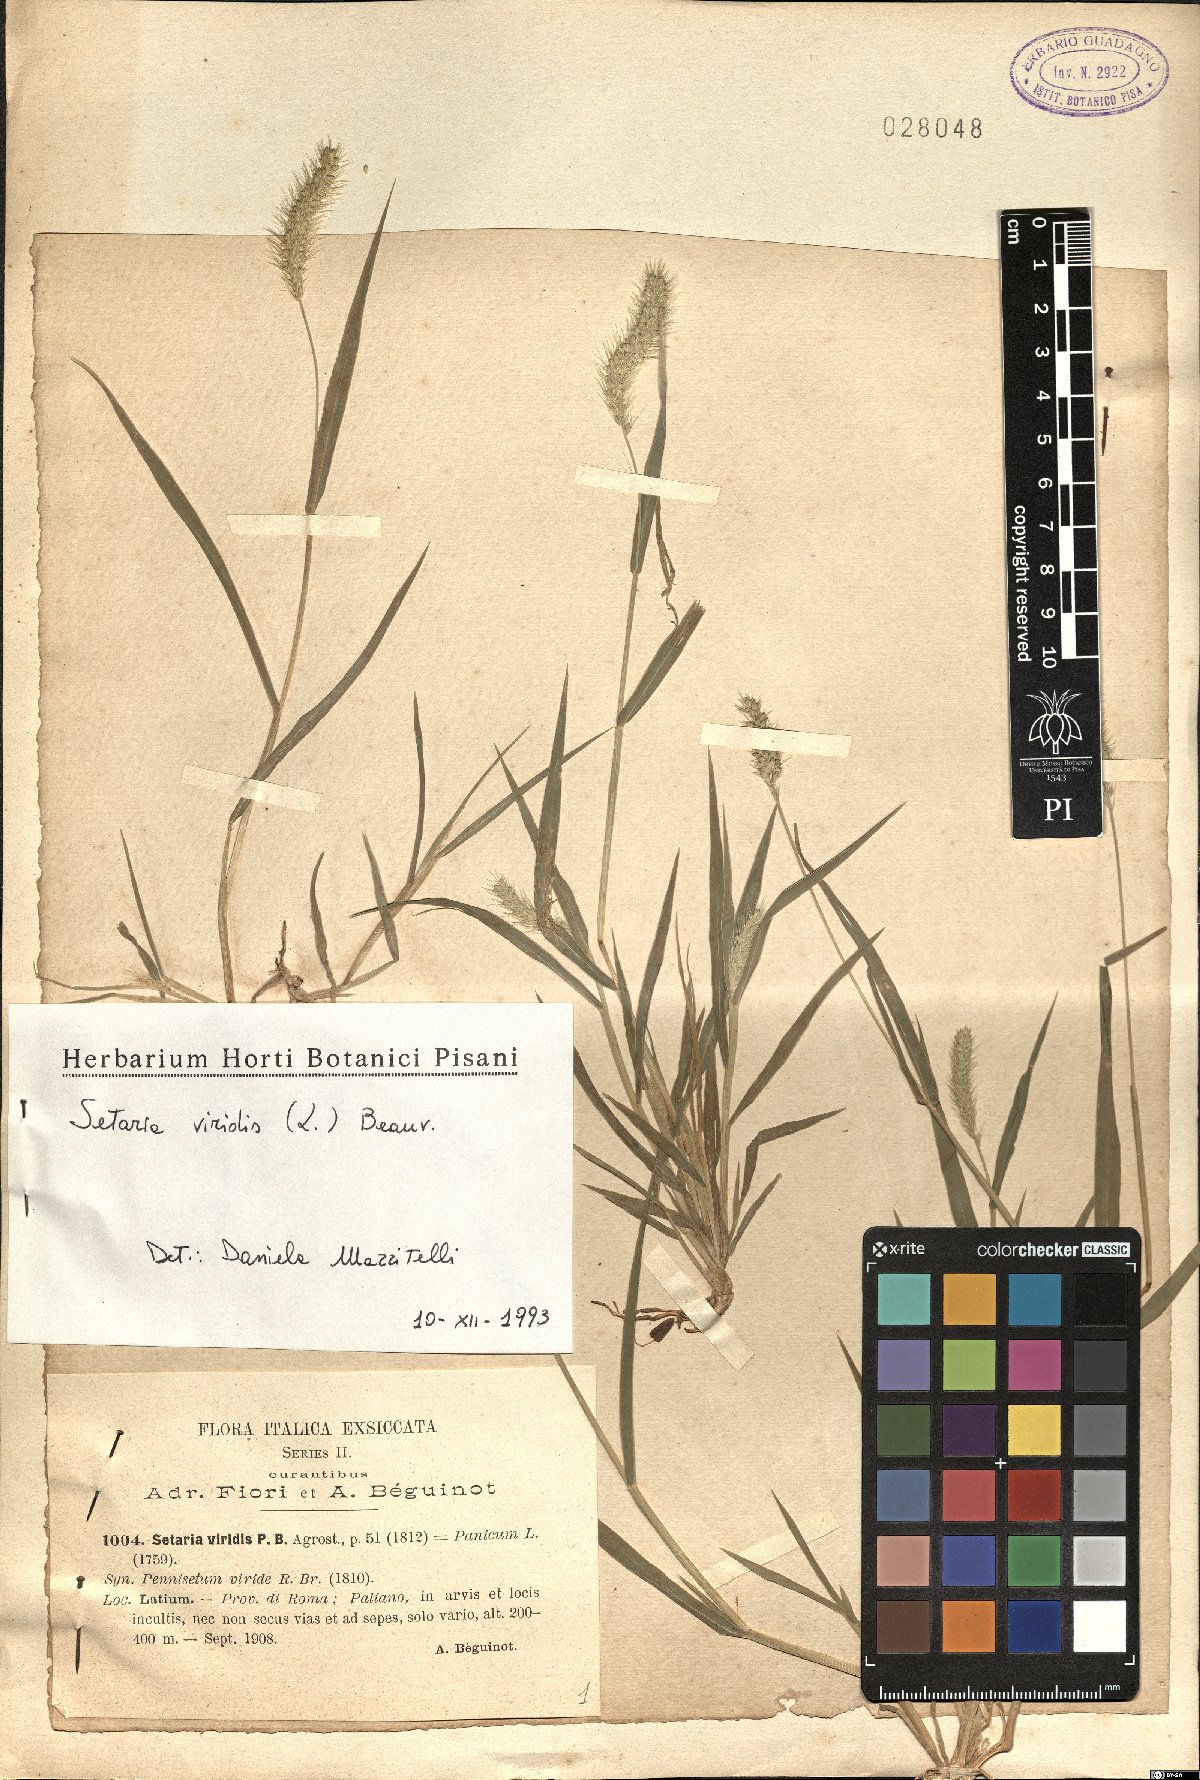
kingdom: Plantae
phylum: Tracheophyta
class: Liliopsida
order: Poales
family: Poaceae
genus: Setaria
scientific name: Setaria viridis
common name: Green bristlegrass
